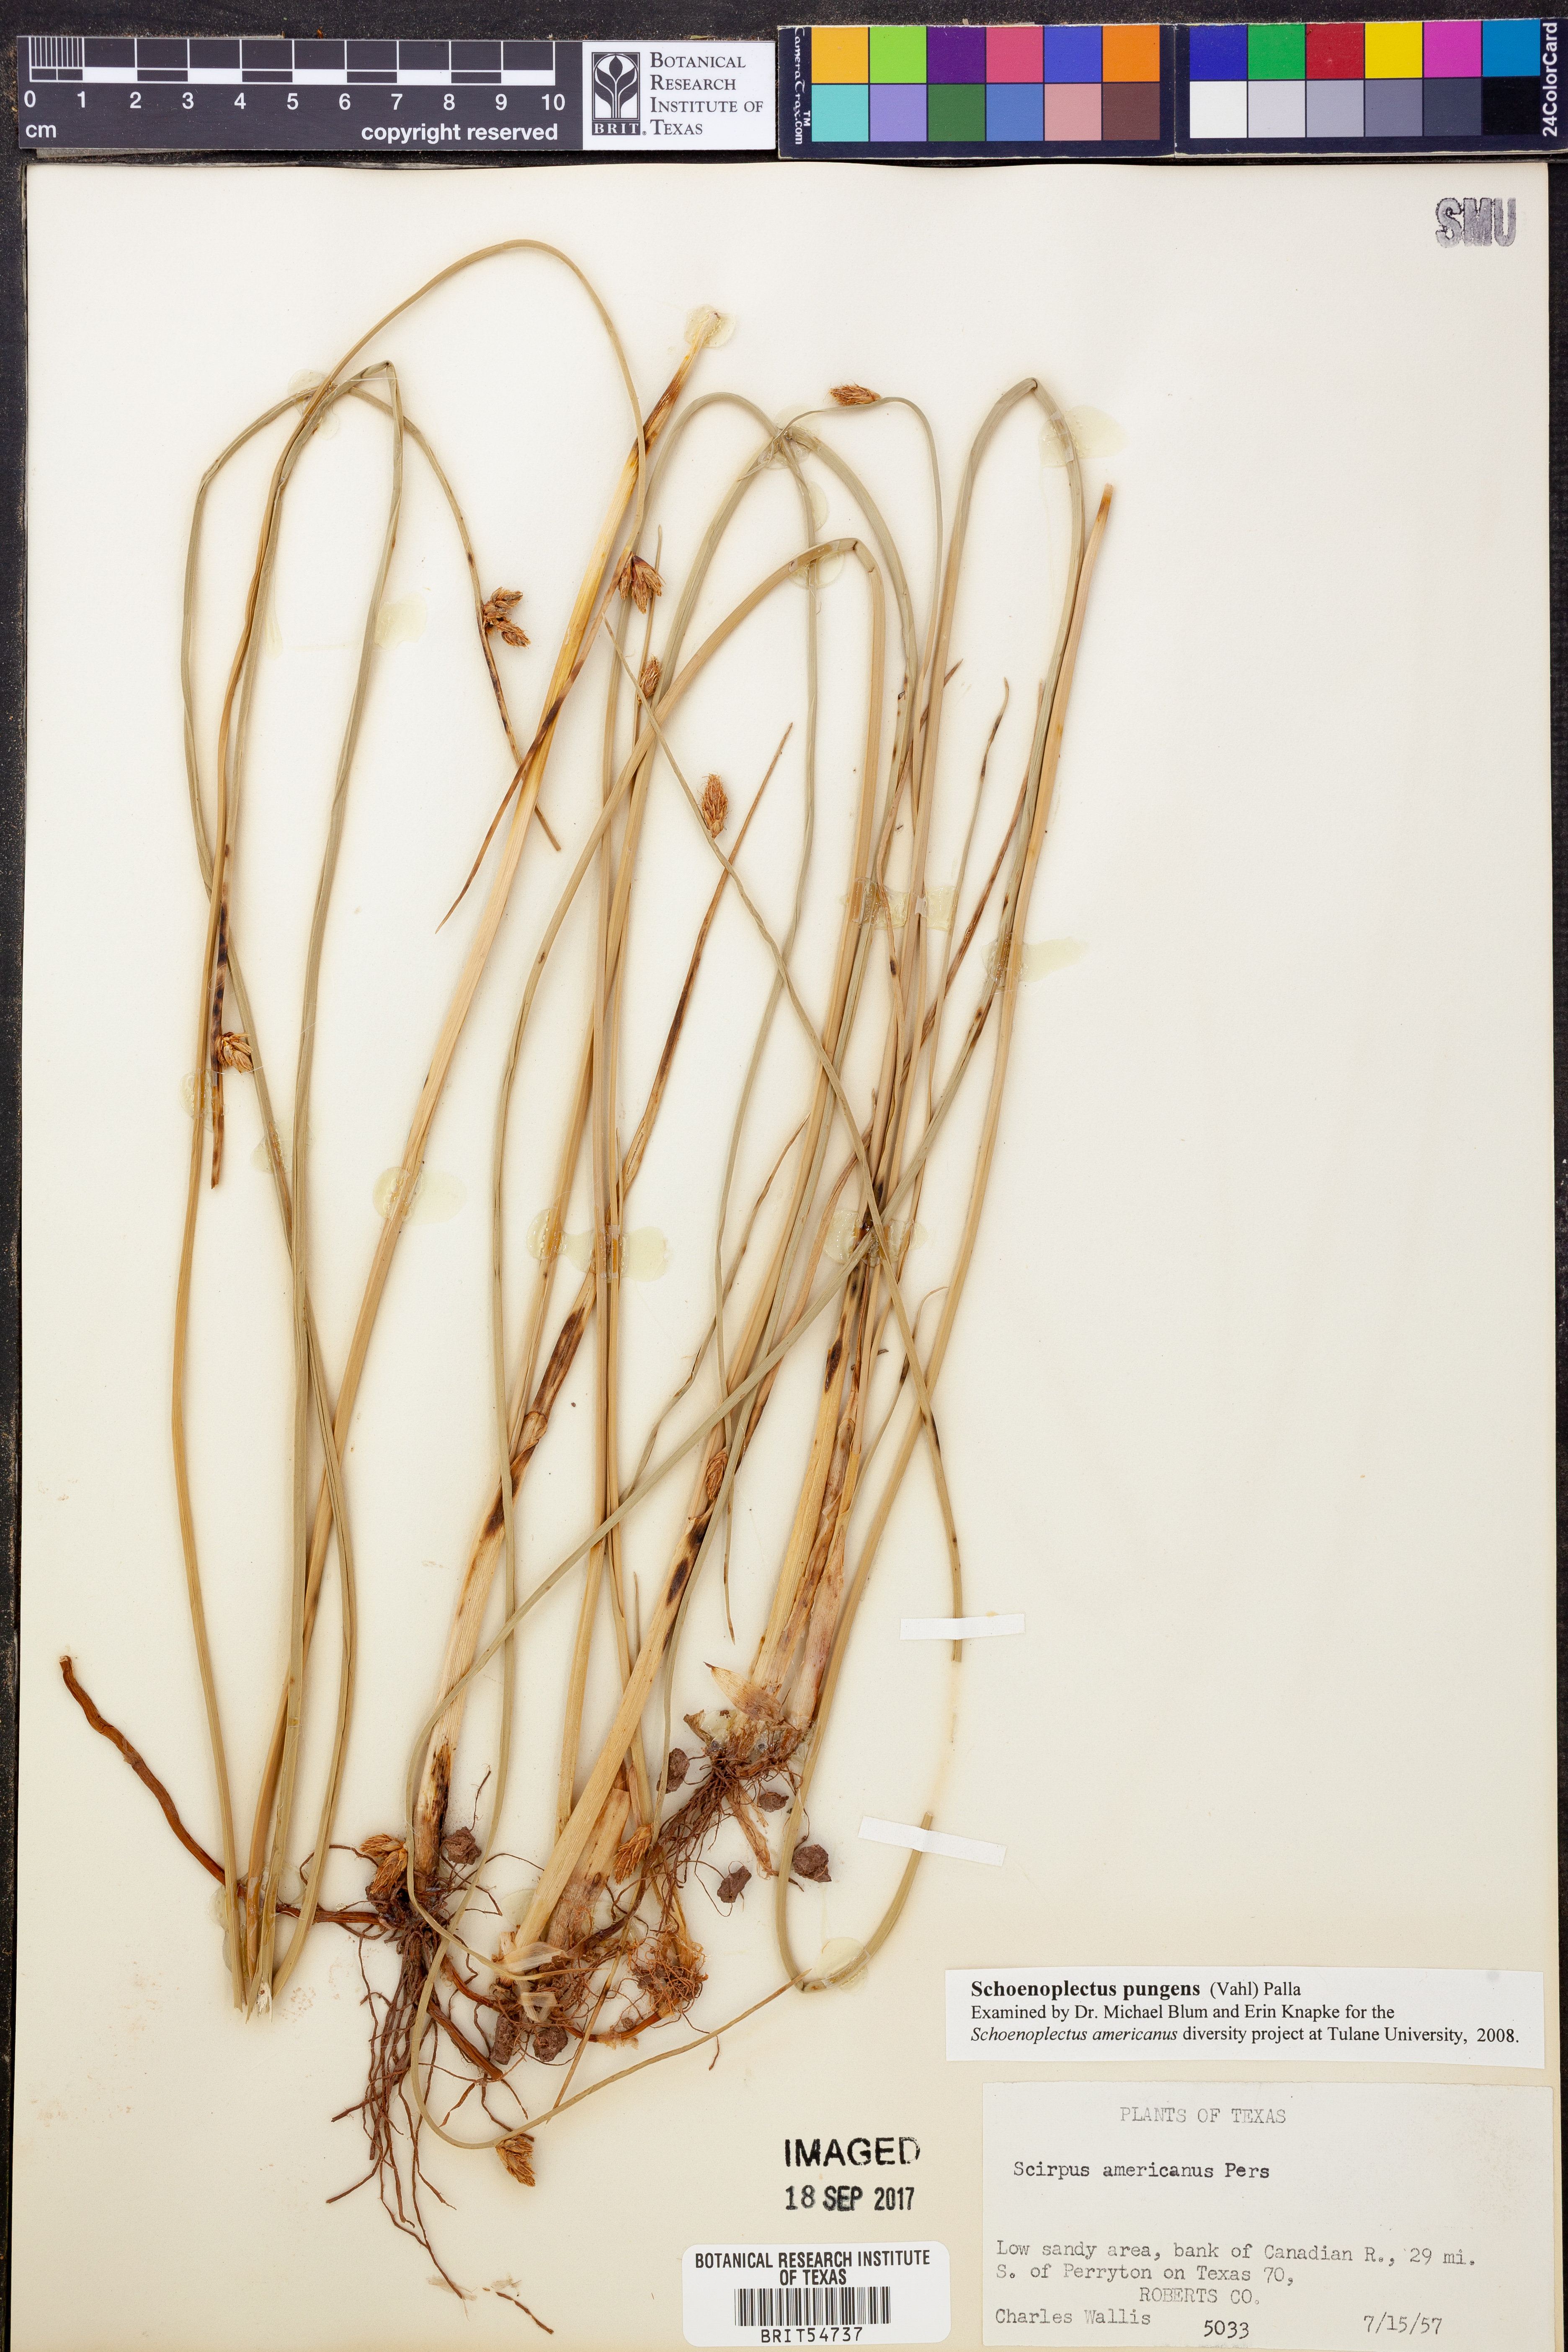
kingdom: Plantae
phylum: Tracheophyta
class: Liliopsida
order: Poales
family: Cyperaceae
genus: Schoenoplectus
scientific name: Schoenoplectus pungens
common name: Sharp club-rush
